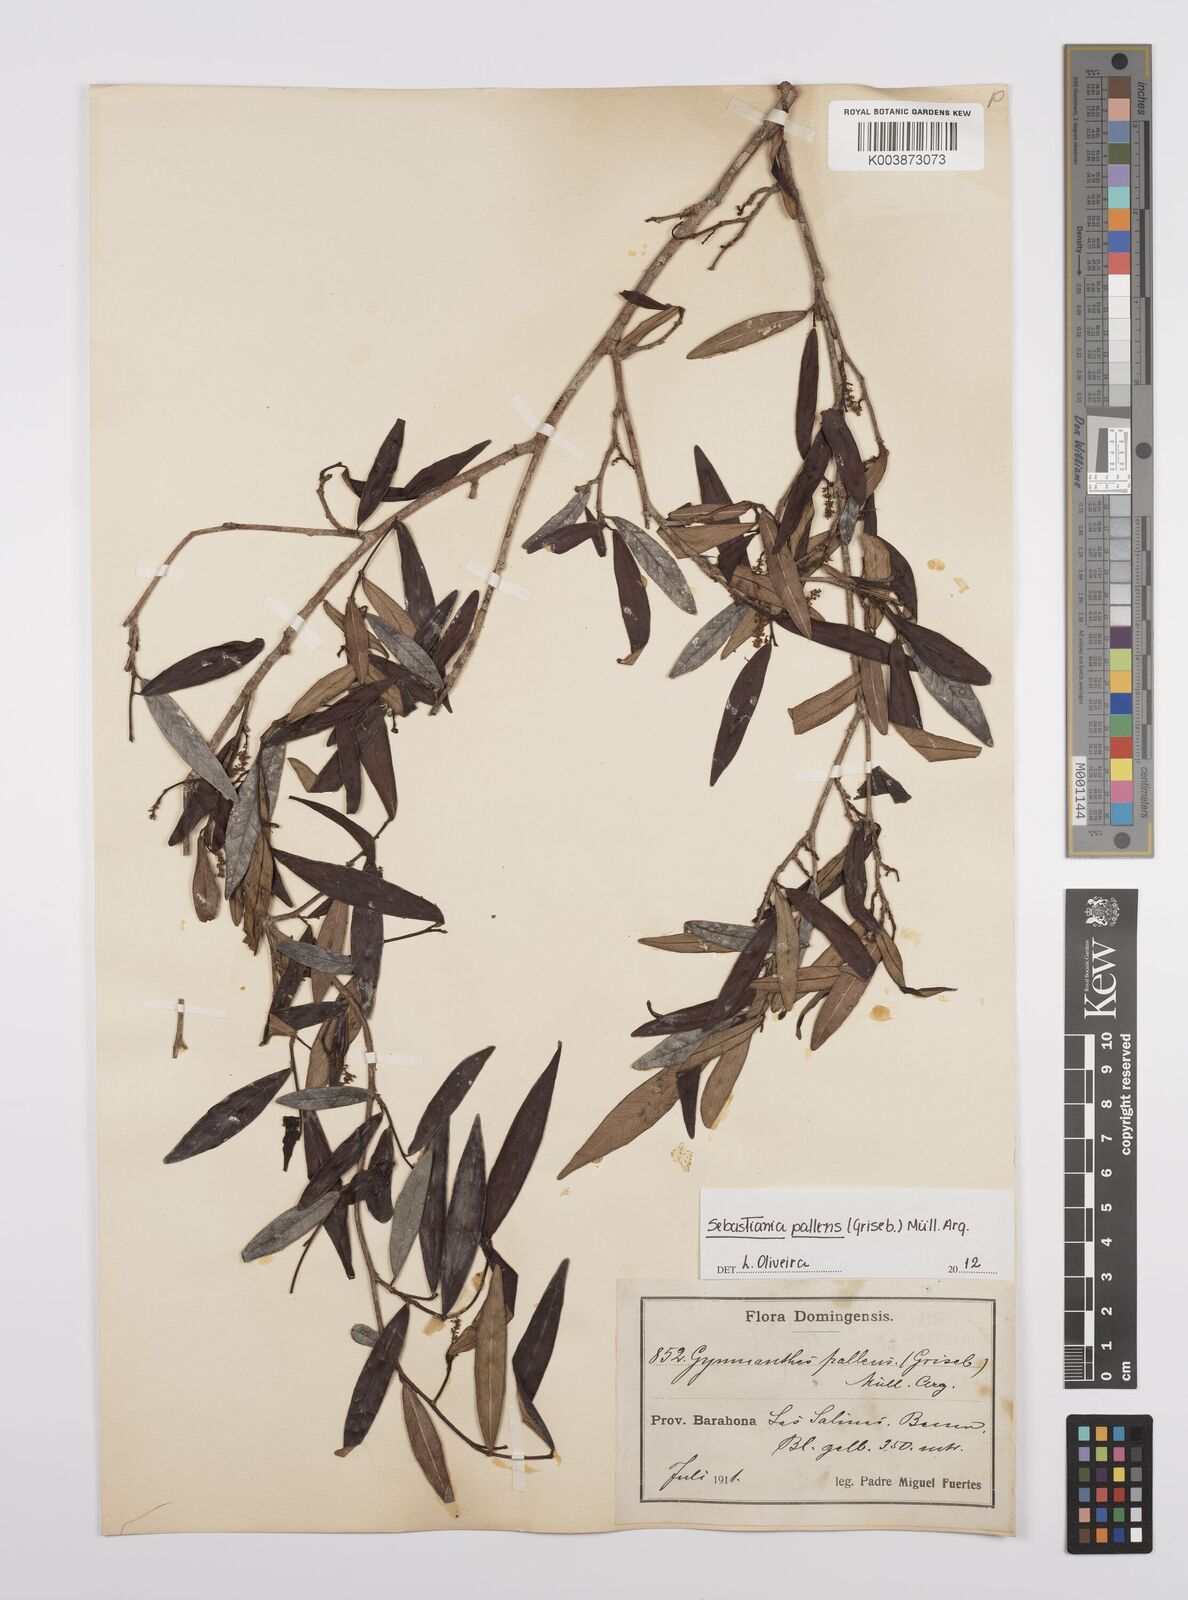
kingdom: Plantae
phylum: Tracheophyta
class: Magnoliopsida
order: Malpighiales
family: Euphorbiaceae
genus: Gymnanthes
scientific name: Gymnanthes pallens
